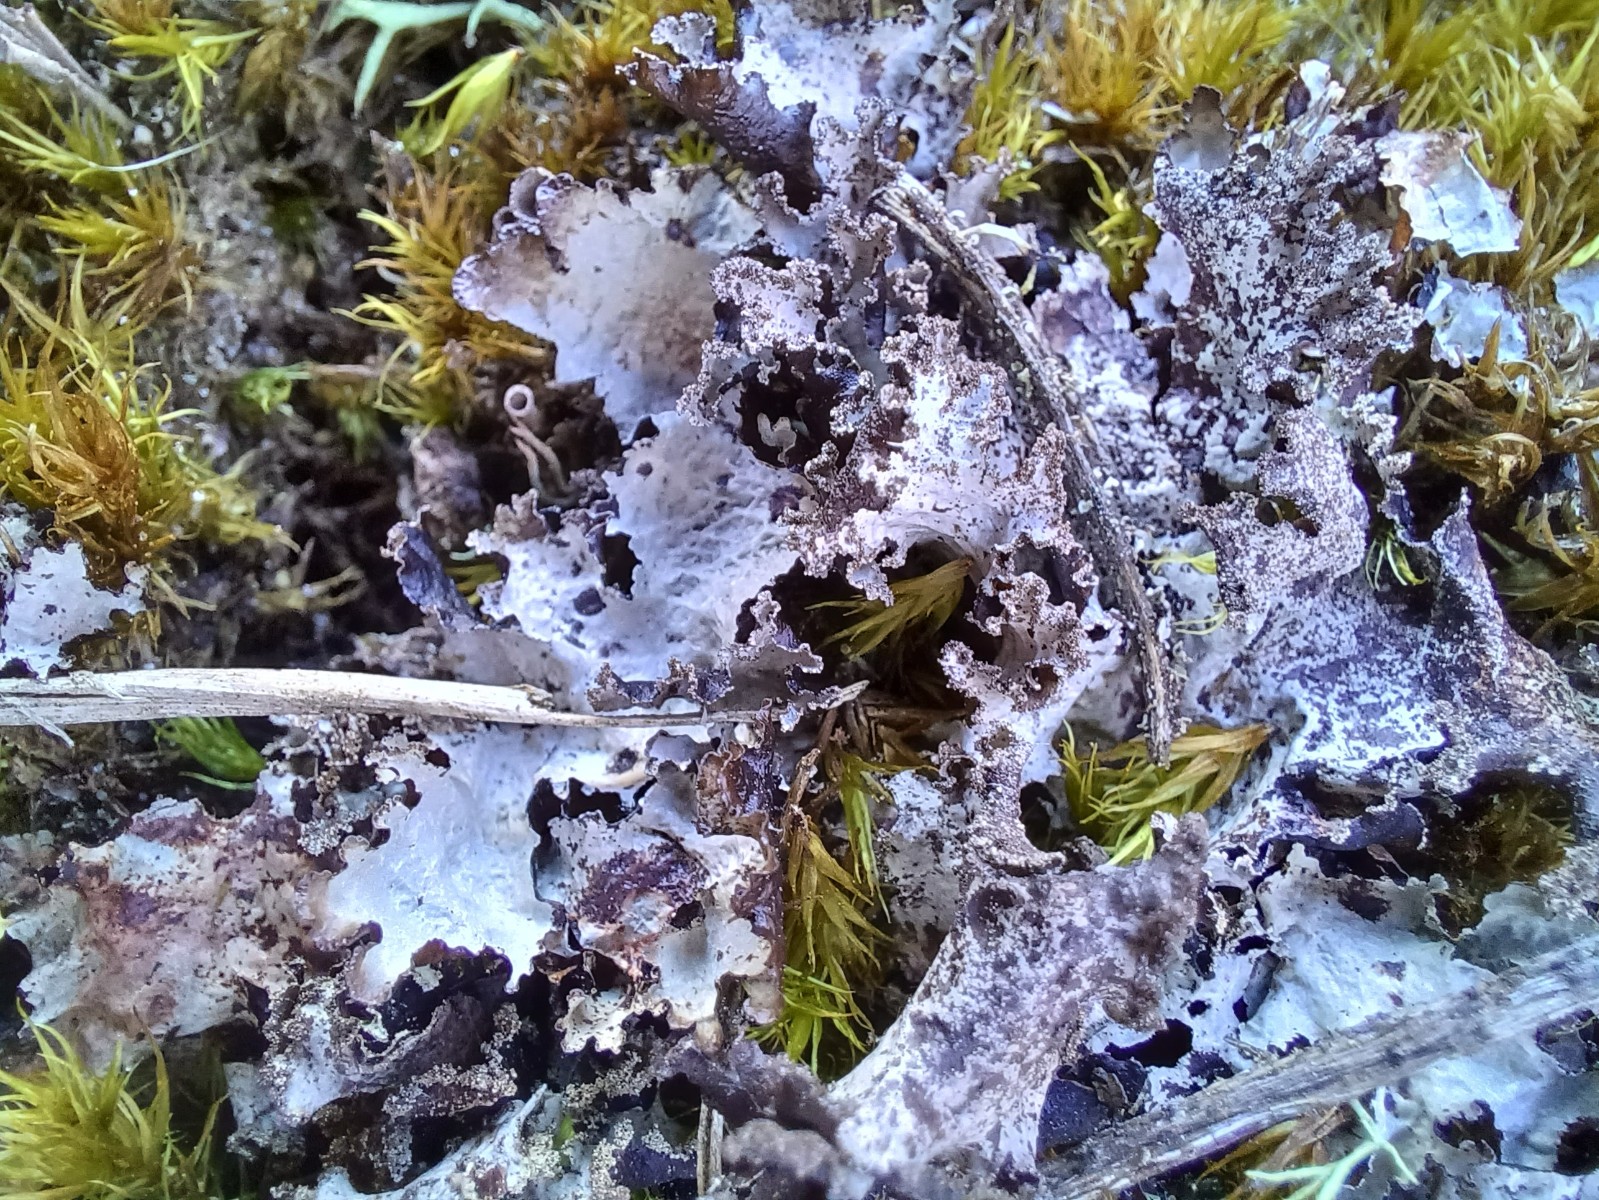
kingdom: Fungi
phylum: Ascomycota
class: Lecanoromycetes
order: Lecanorales
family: Parmeliaceae
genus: Platismatia
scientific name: Platismatia glauca
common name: blågrå papirlav
